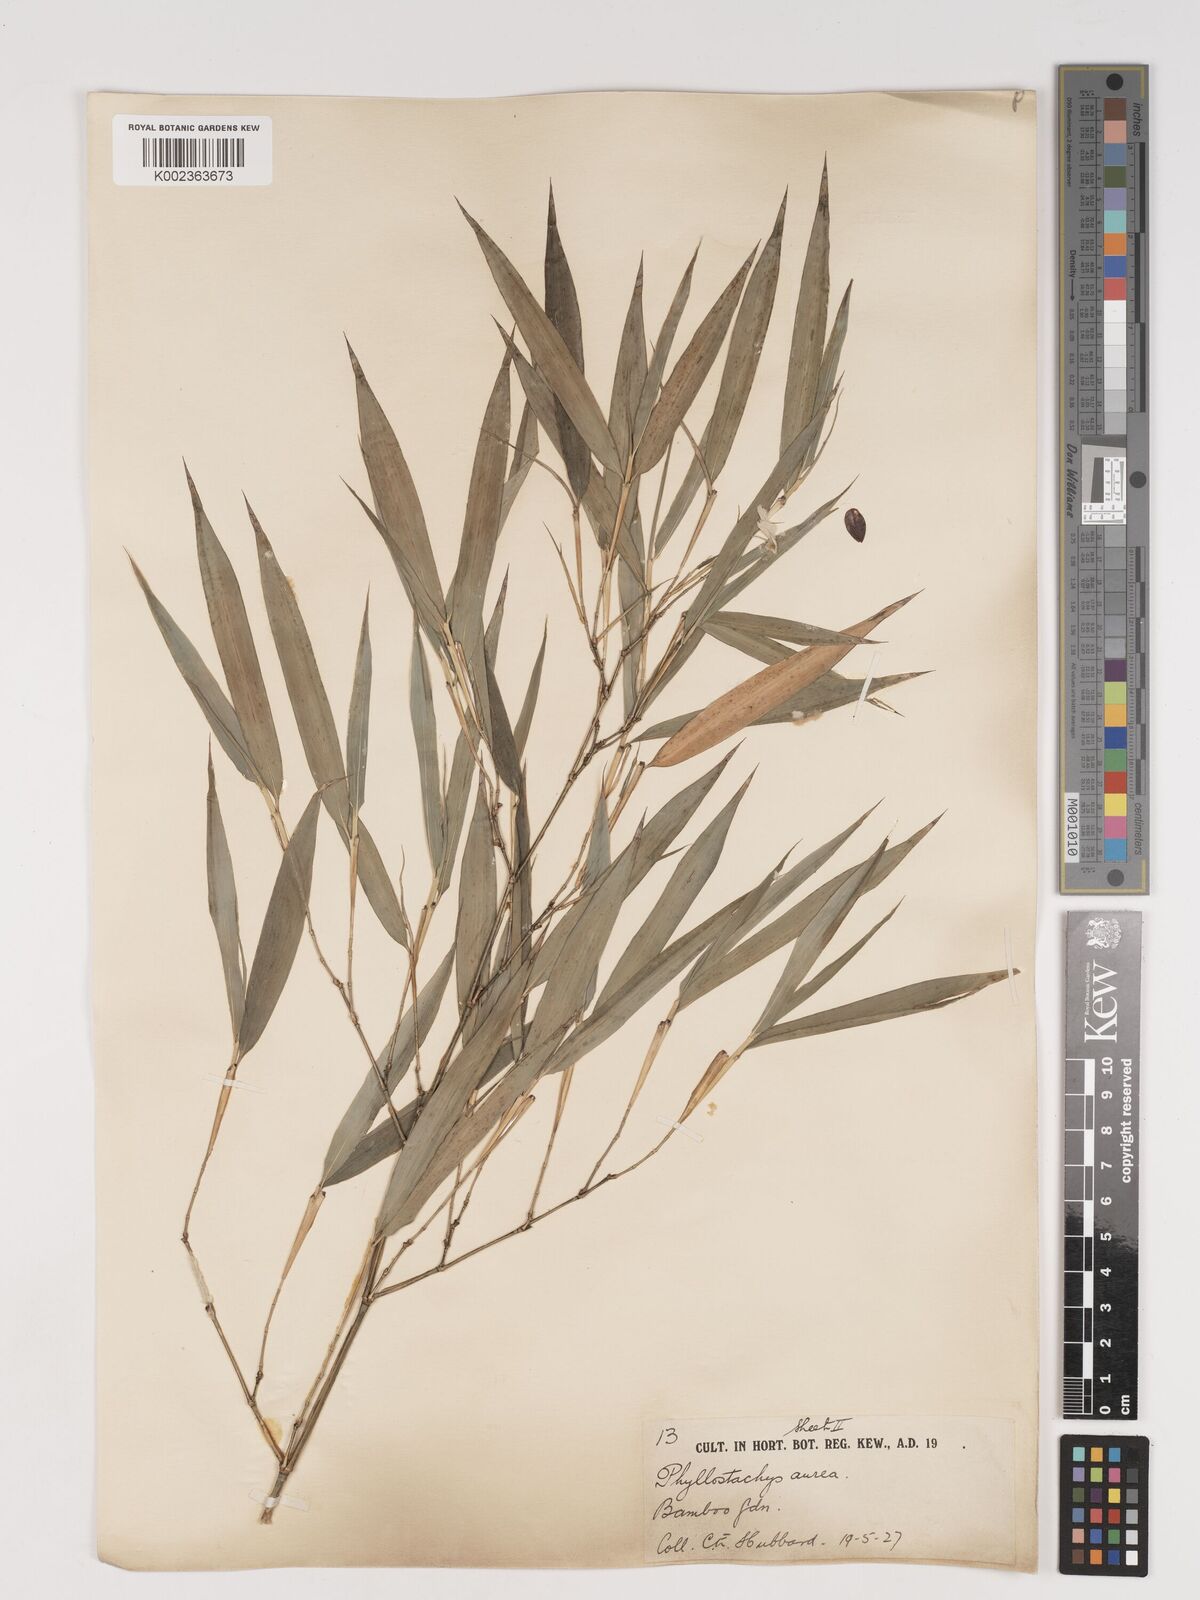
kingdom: Plantae
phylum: Tracheophyta
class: Liliopsida
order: Poales
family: Poaceae
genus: Phyllostachys
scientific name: Phyllostachys aurea
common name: Golden bamboo
